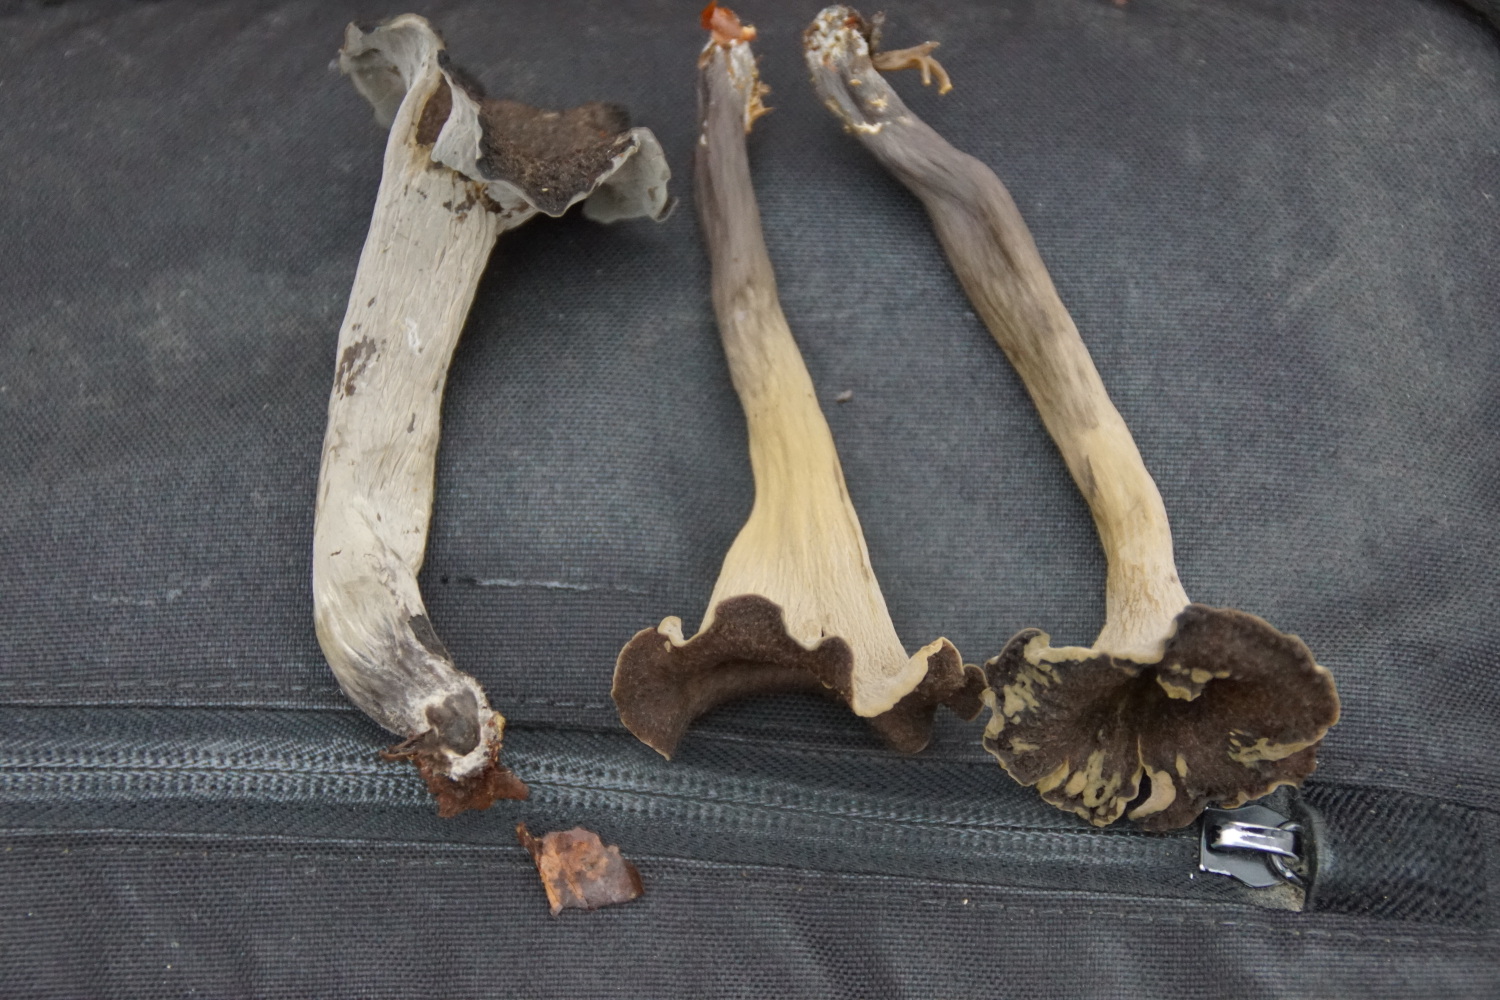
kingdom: Fungi
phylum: Basidiomycota
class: Agaricomycetes
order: Cantharellales
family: Hydnaceae
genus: Craterellus
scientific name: Craterellus cornucopioides
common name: trompetsvamp
